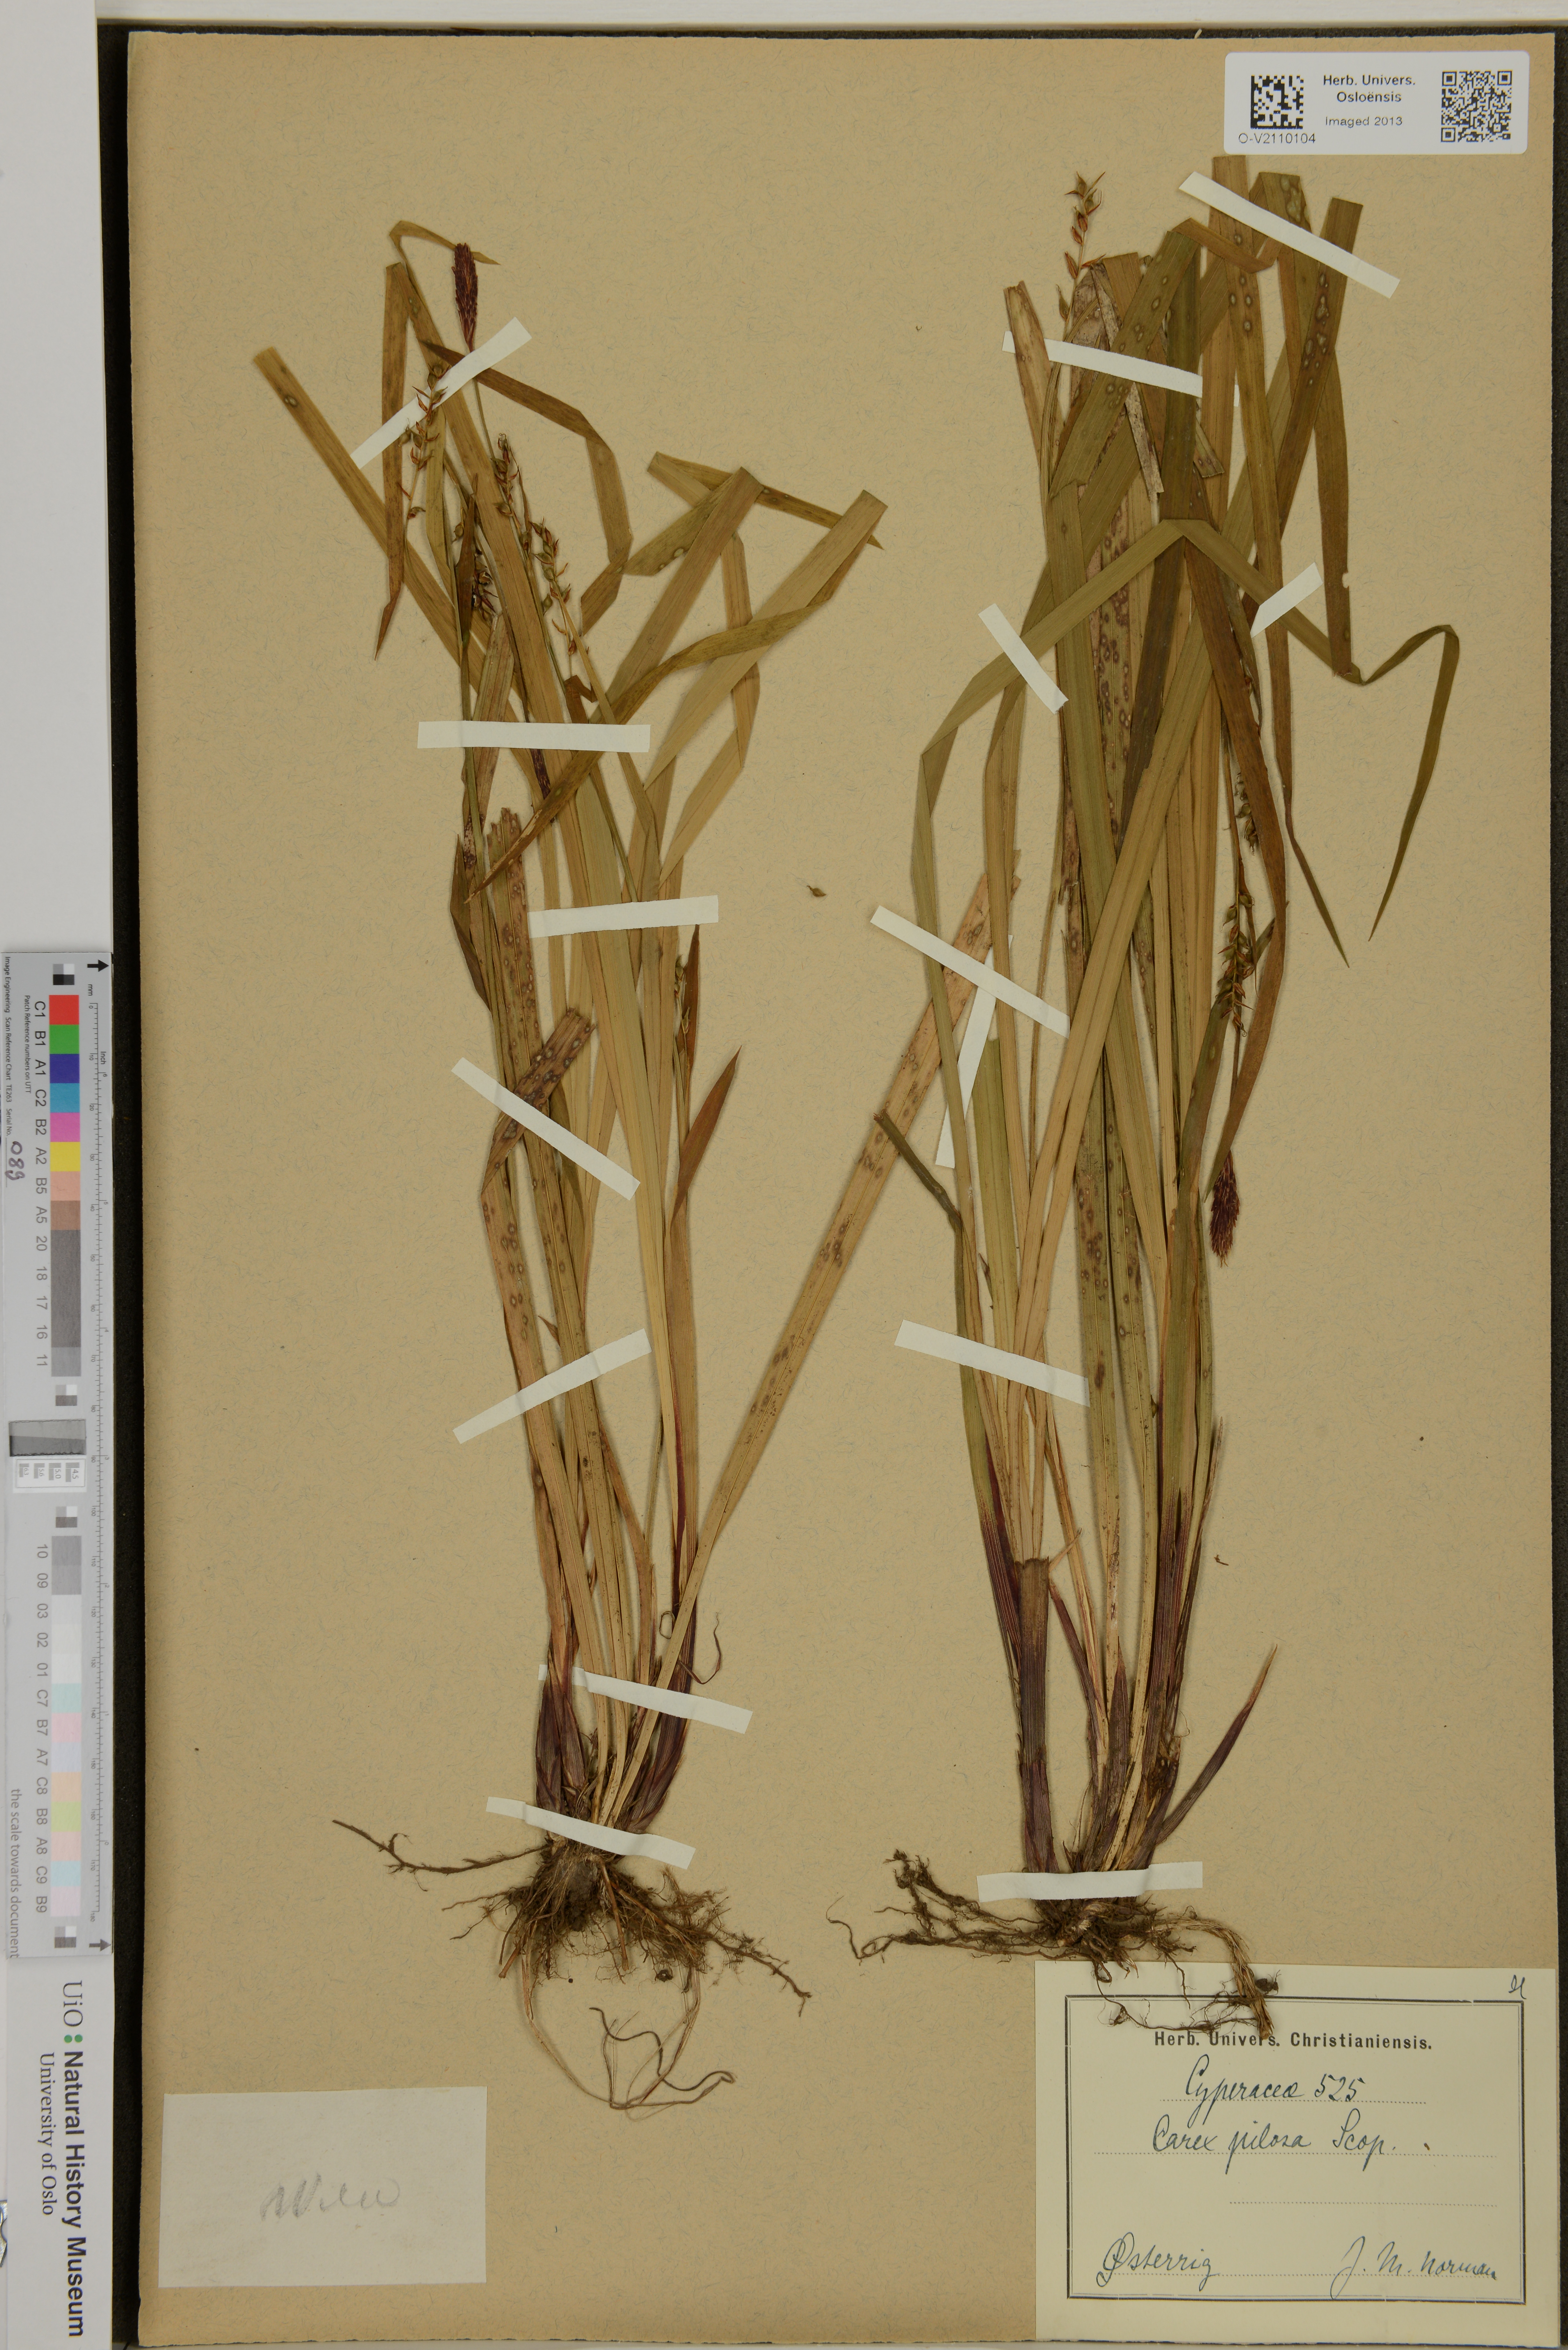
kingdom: Plantae
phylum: Tracheophyta
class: Liliopsida
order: Poales
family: Cyperaceae
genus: Carex
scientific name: Carex pilosa
